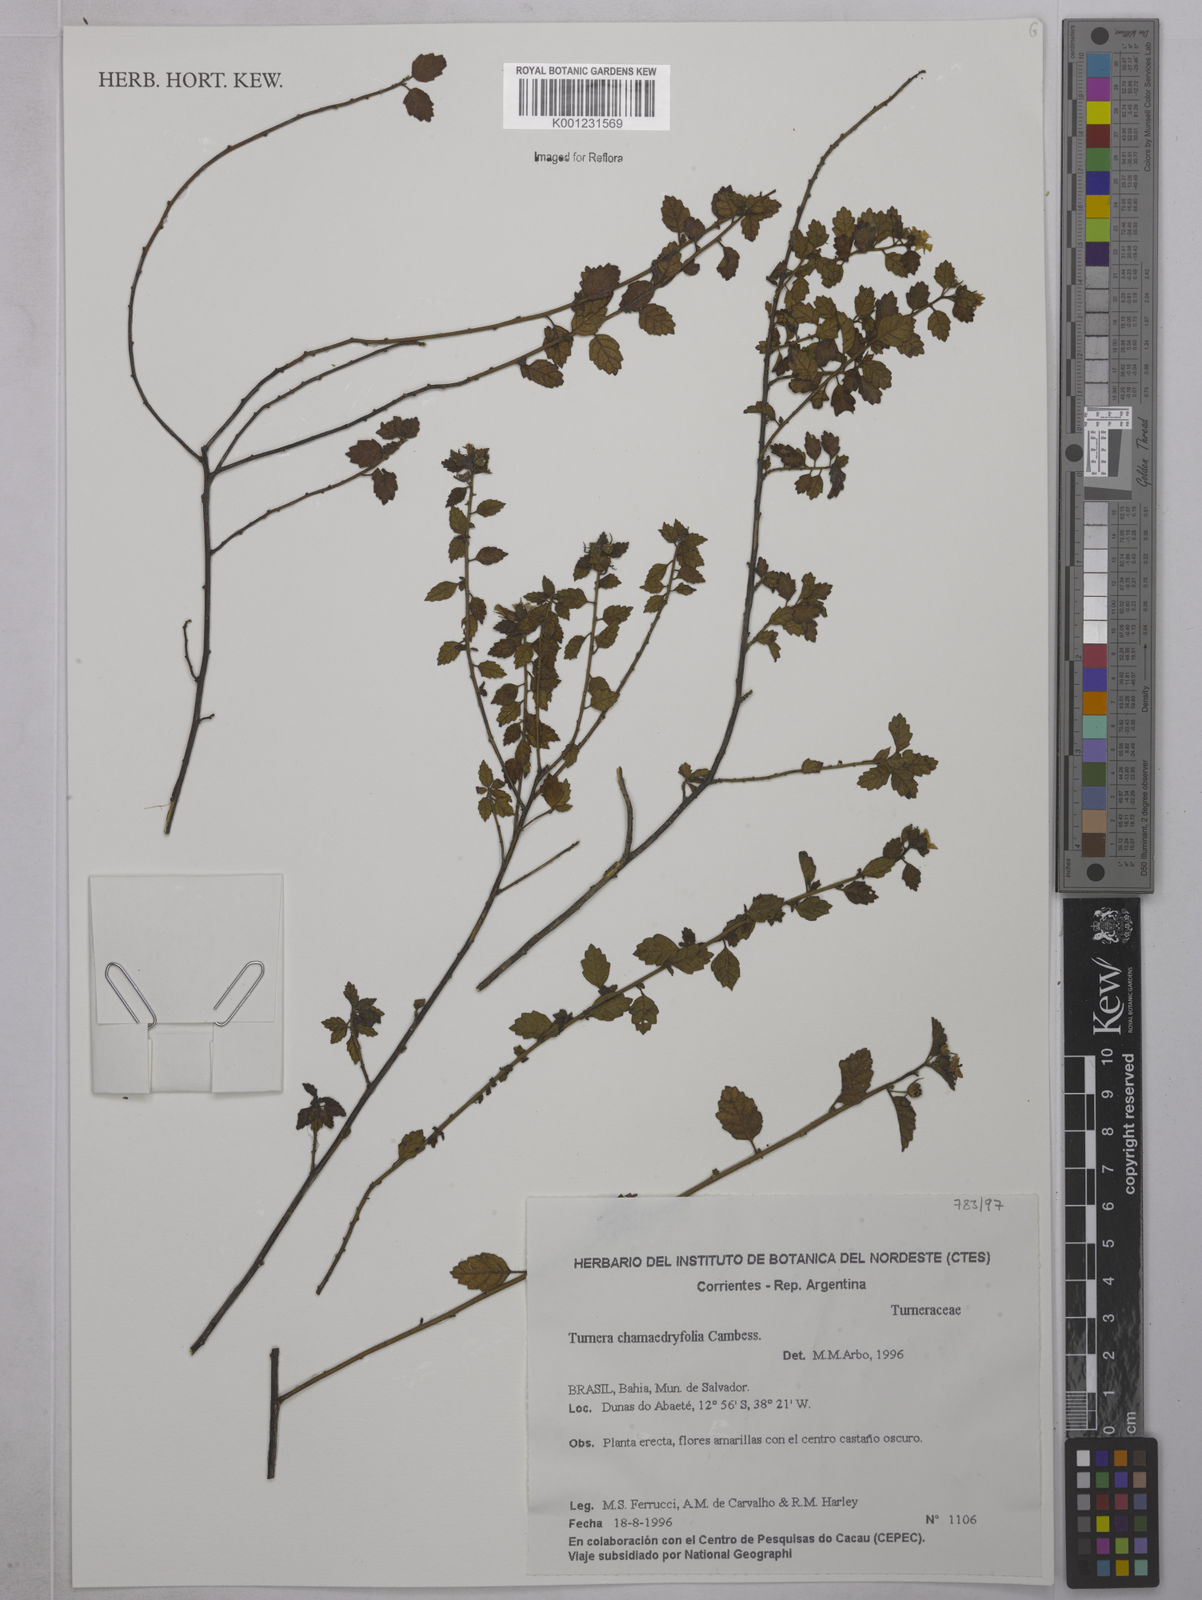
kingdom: Plantae
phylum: Tracheophyta
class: Magnoliopsida
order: Malpighiales
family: Turneraceae
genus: Turnera
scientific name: Turnera chamaedrifolia
